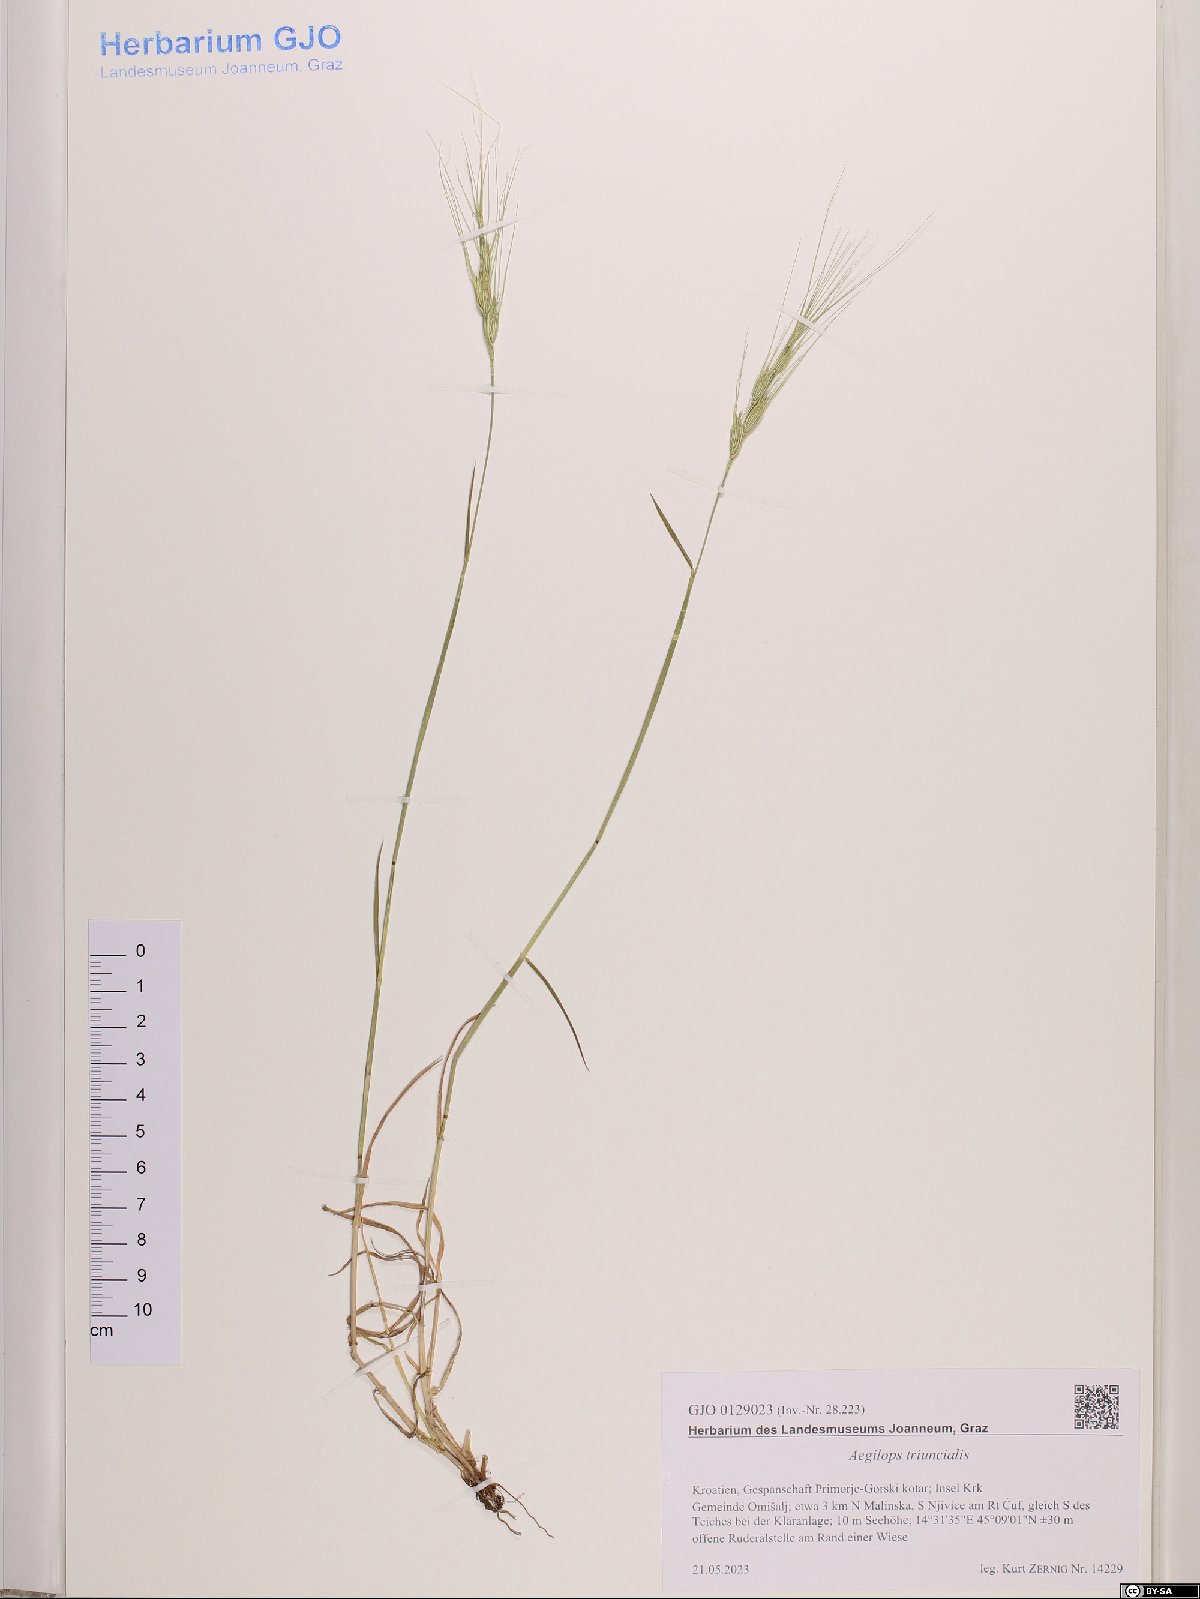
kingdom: Plantae
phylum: Tracheophyta
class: Liliopsida
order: Poales
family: Poaceae
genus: Aegilops
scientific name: Aegilops triuncialis
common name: Barb goat grass
